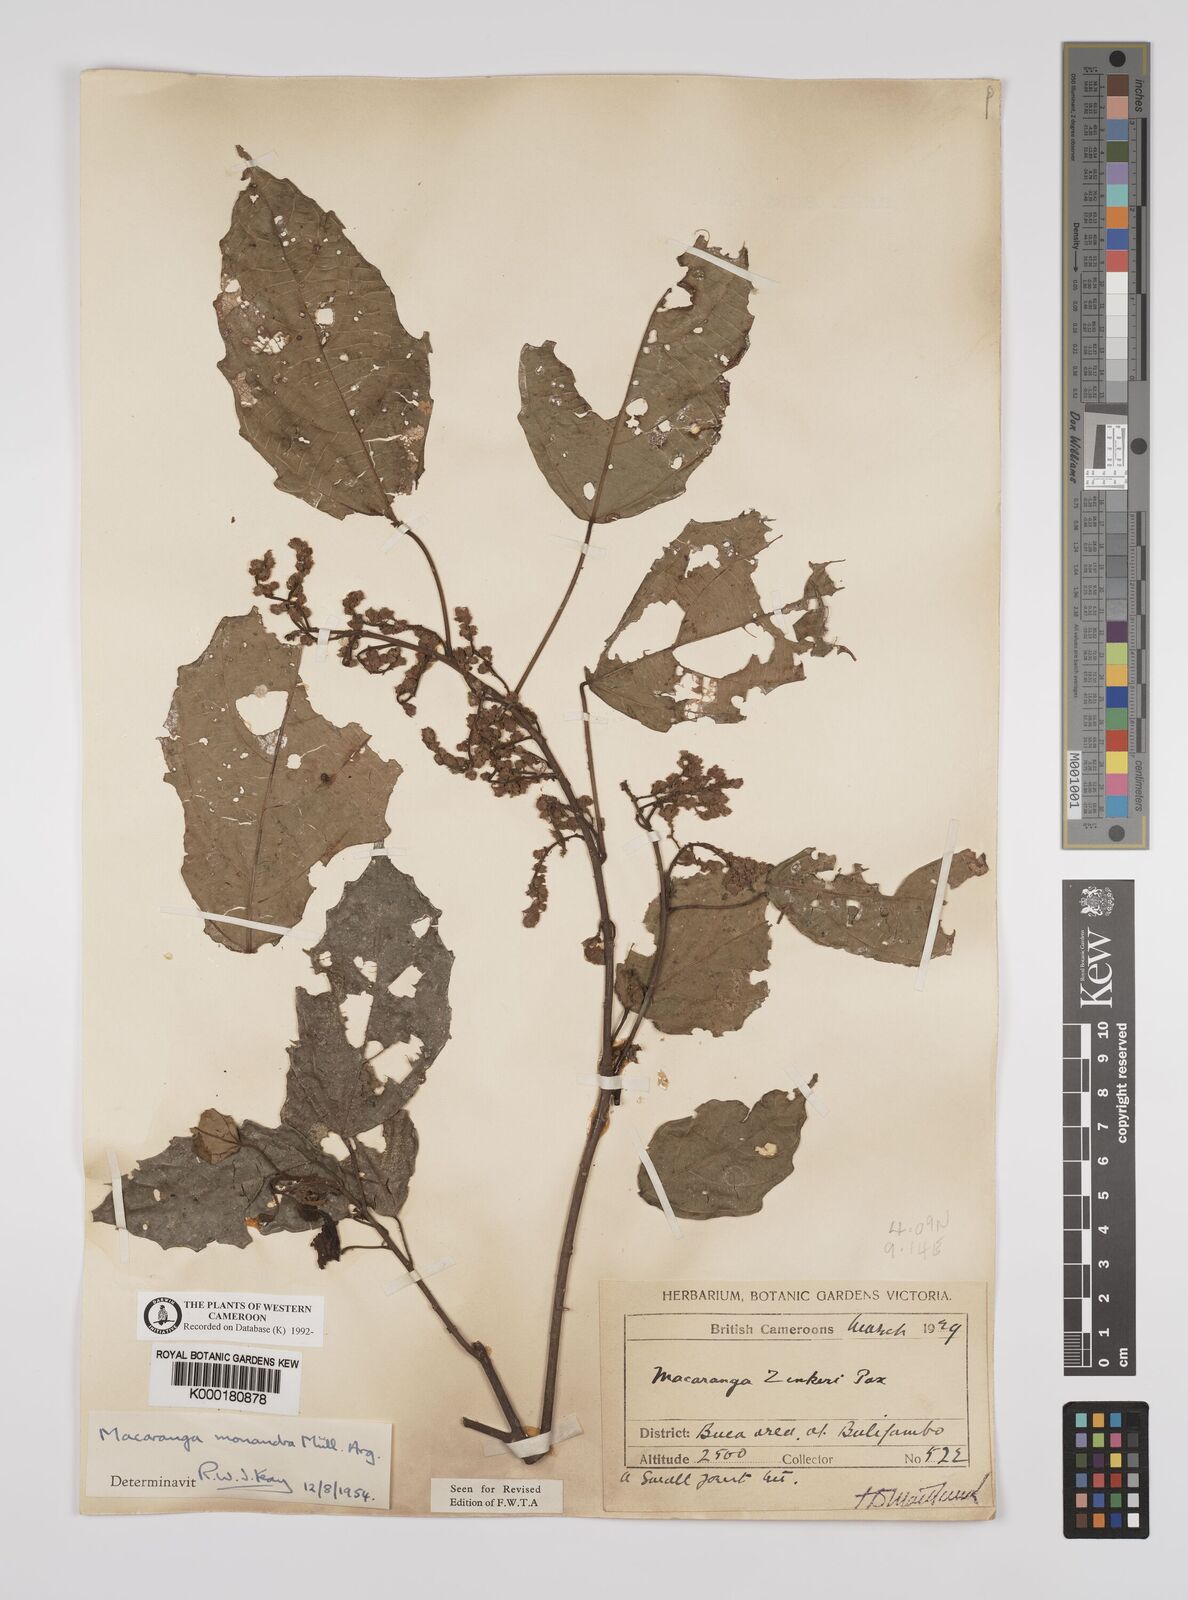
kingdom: Plantae
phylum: Tracheophyta
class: Magnoliopsida
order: Malpighiales
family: Euphorbiaceae
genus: Macaranga
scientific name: Macaranga
